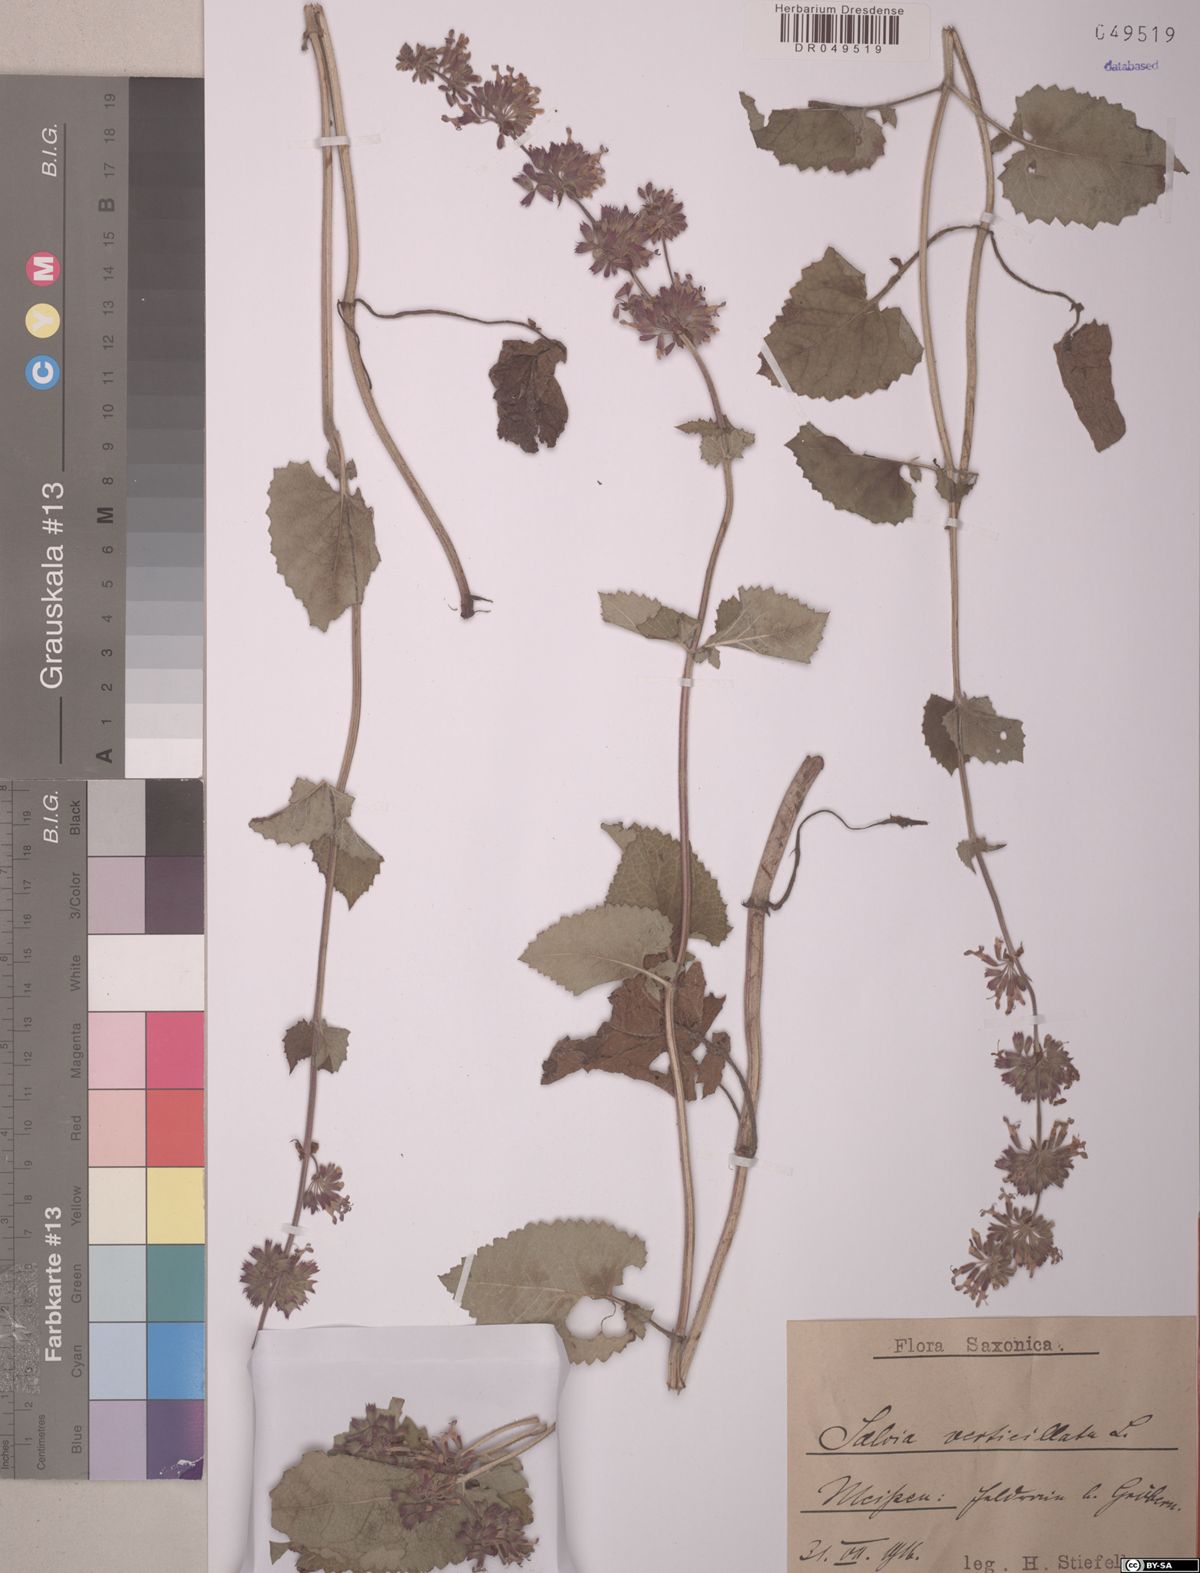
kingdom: Plantae
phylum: Tracheophyta
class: Magnoliopsida
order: Lamiales
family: Lamiaceae
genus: Salvia
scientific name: Salvia verticillata
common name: Whorled clary
